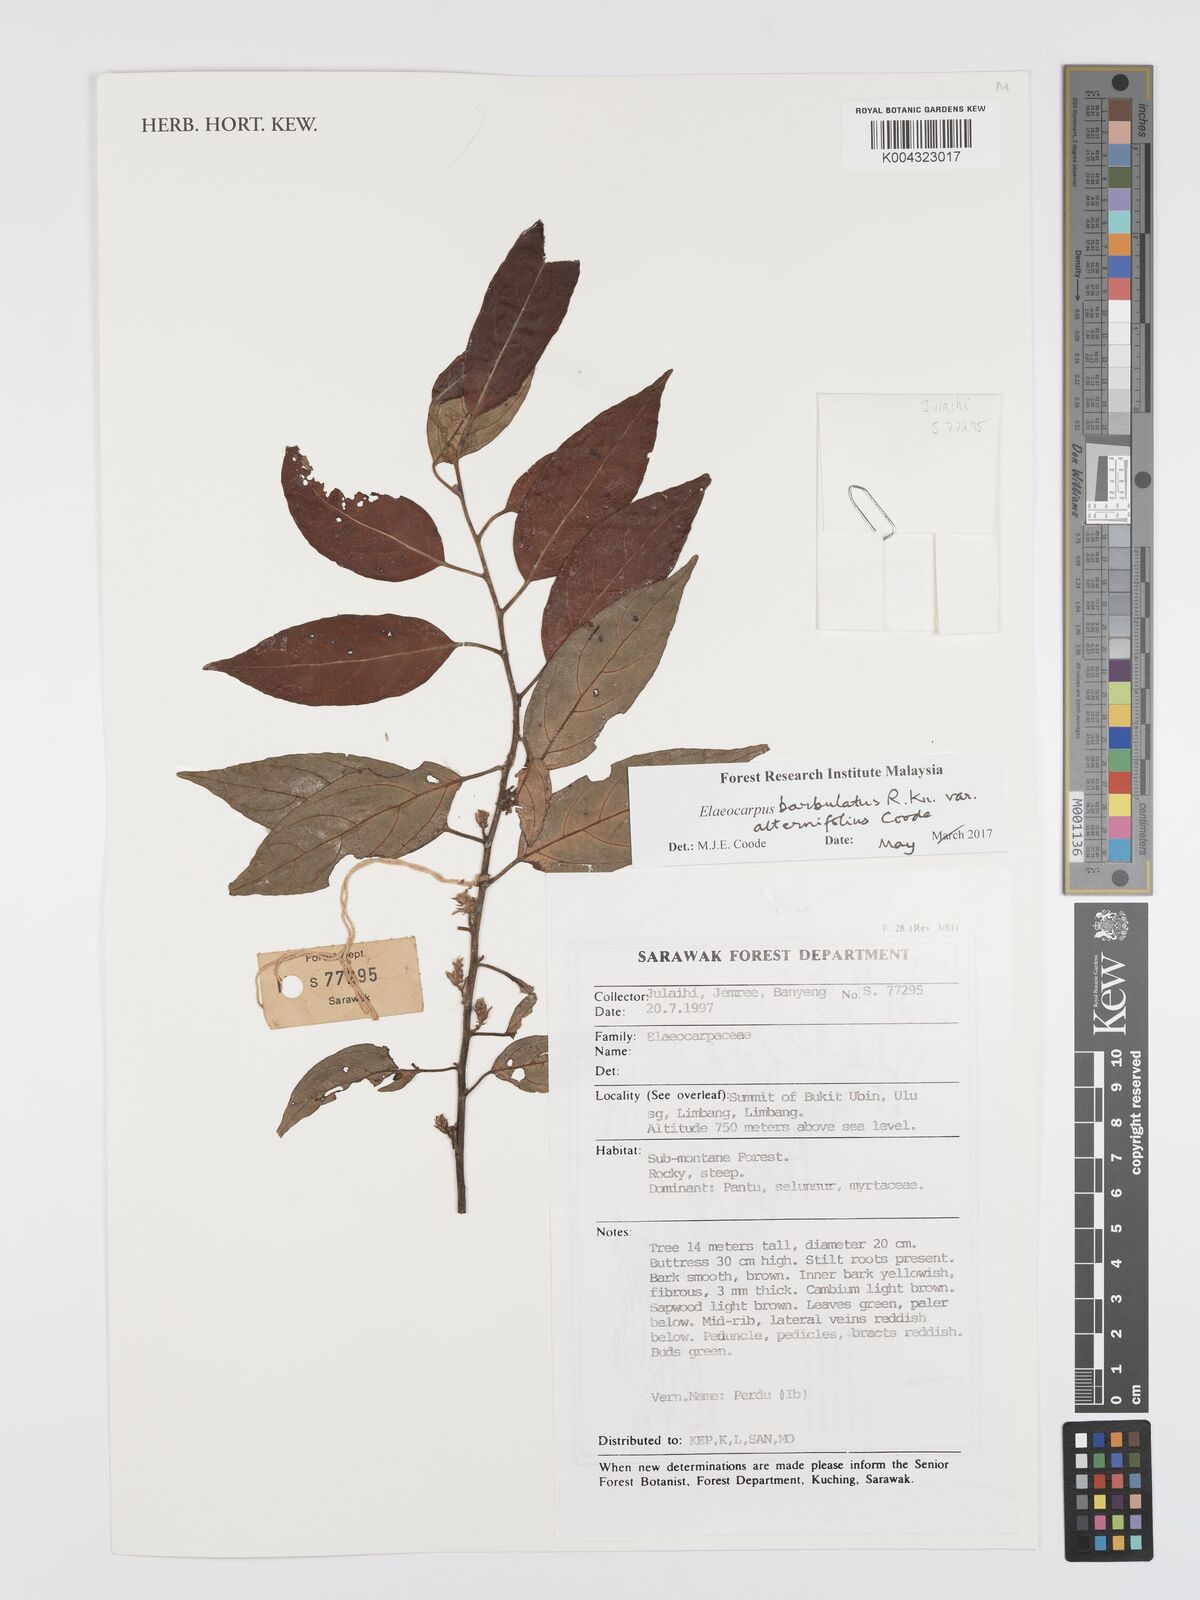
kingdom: Plantae
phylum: Tracheophyta
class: Magnoliopsida
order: Oxalidales
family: Elaeocarpaceae
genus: Elaeocarpus
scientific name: Elaeocarpus barbulatus
